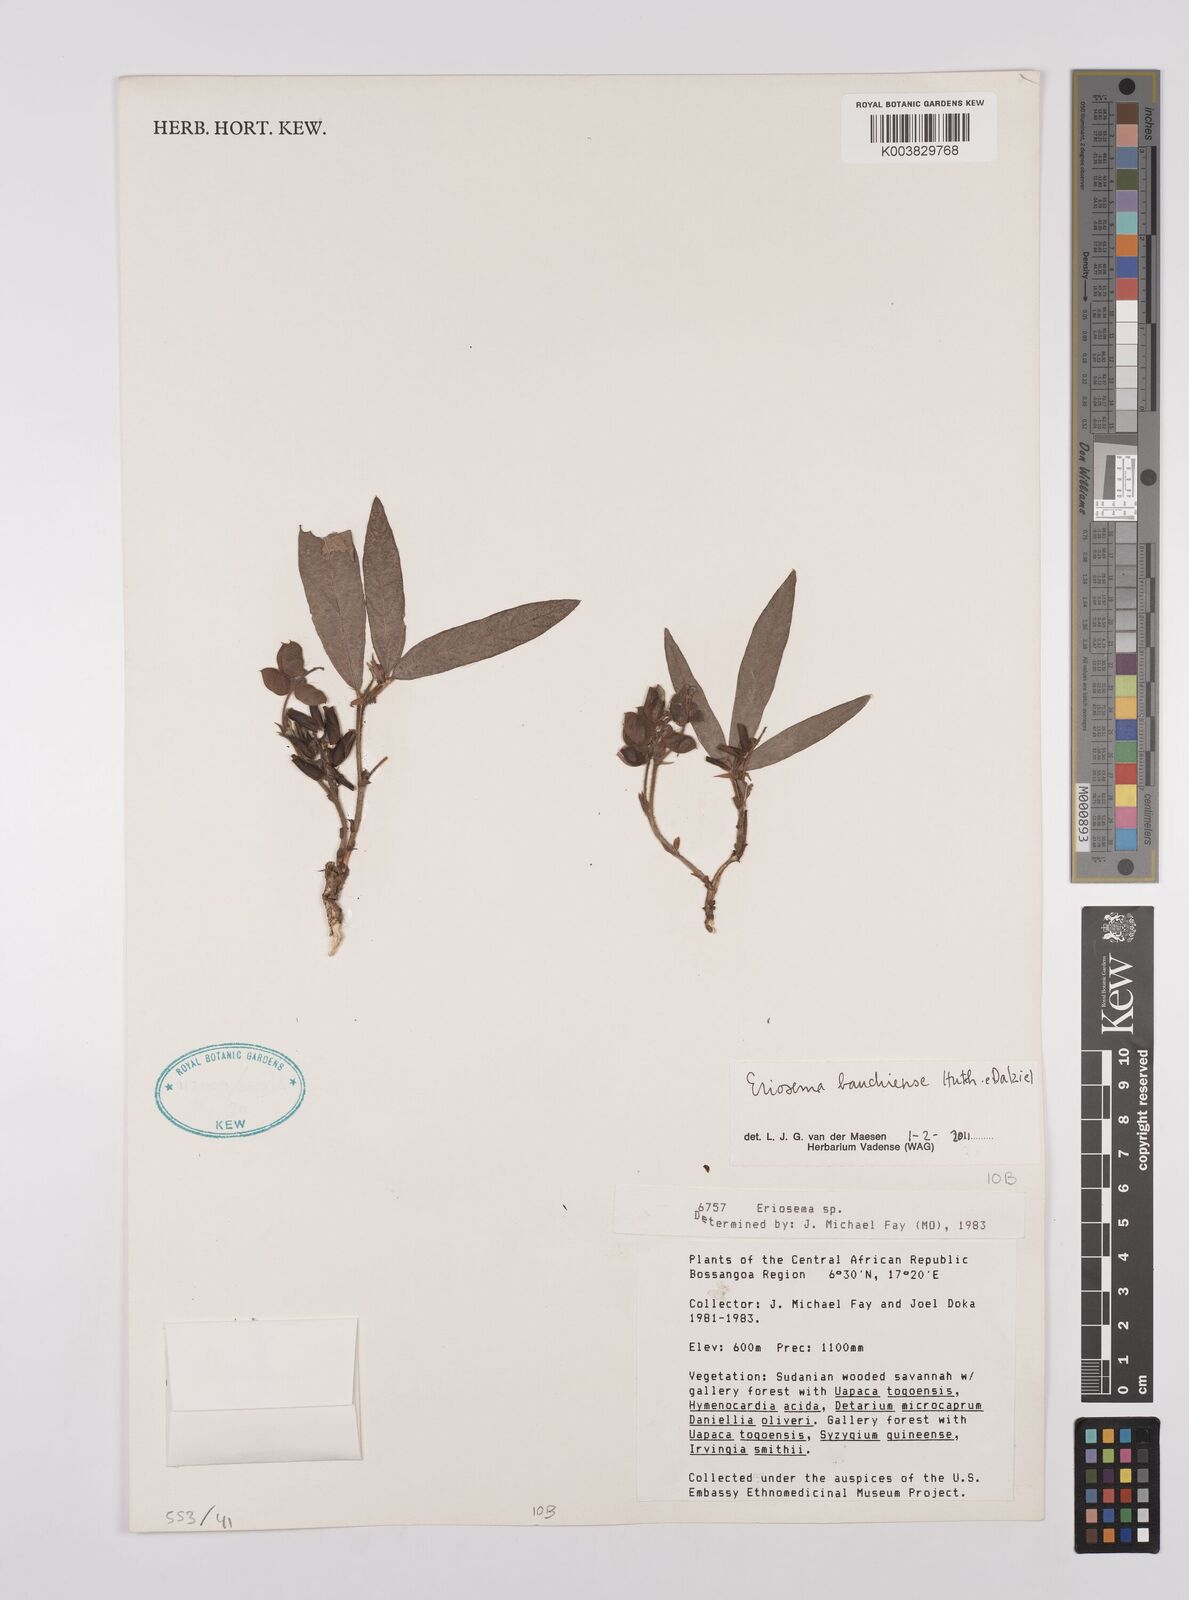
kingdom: Plantae
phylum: Tracheophyta
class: Magnoliopsida
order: Fabales
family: Fabaceae
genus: Eriosema
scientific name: Eriosema bauchiense
